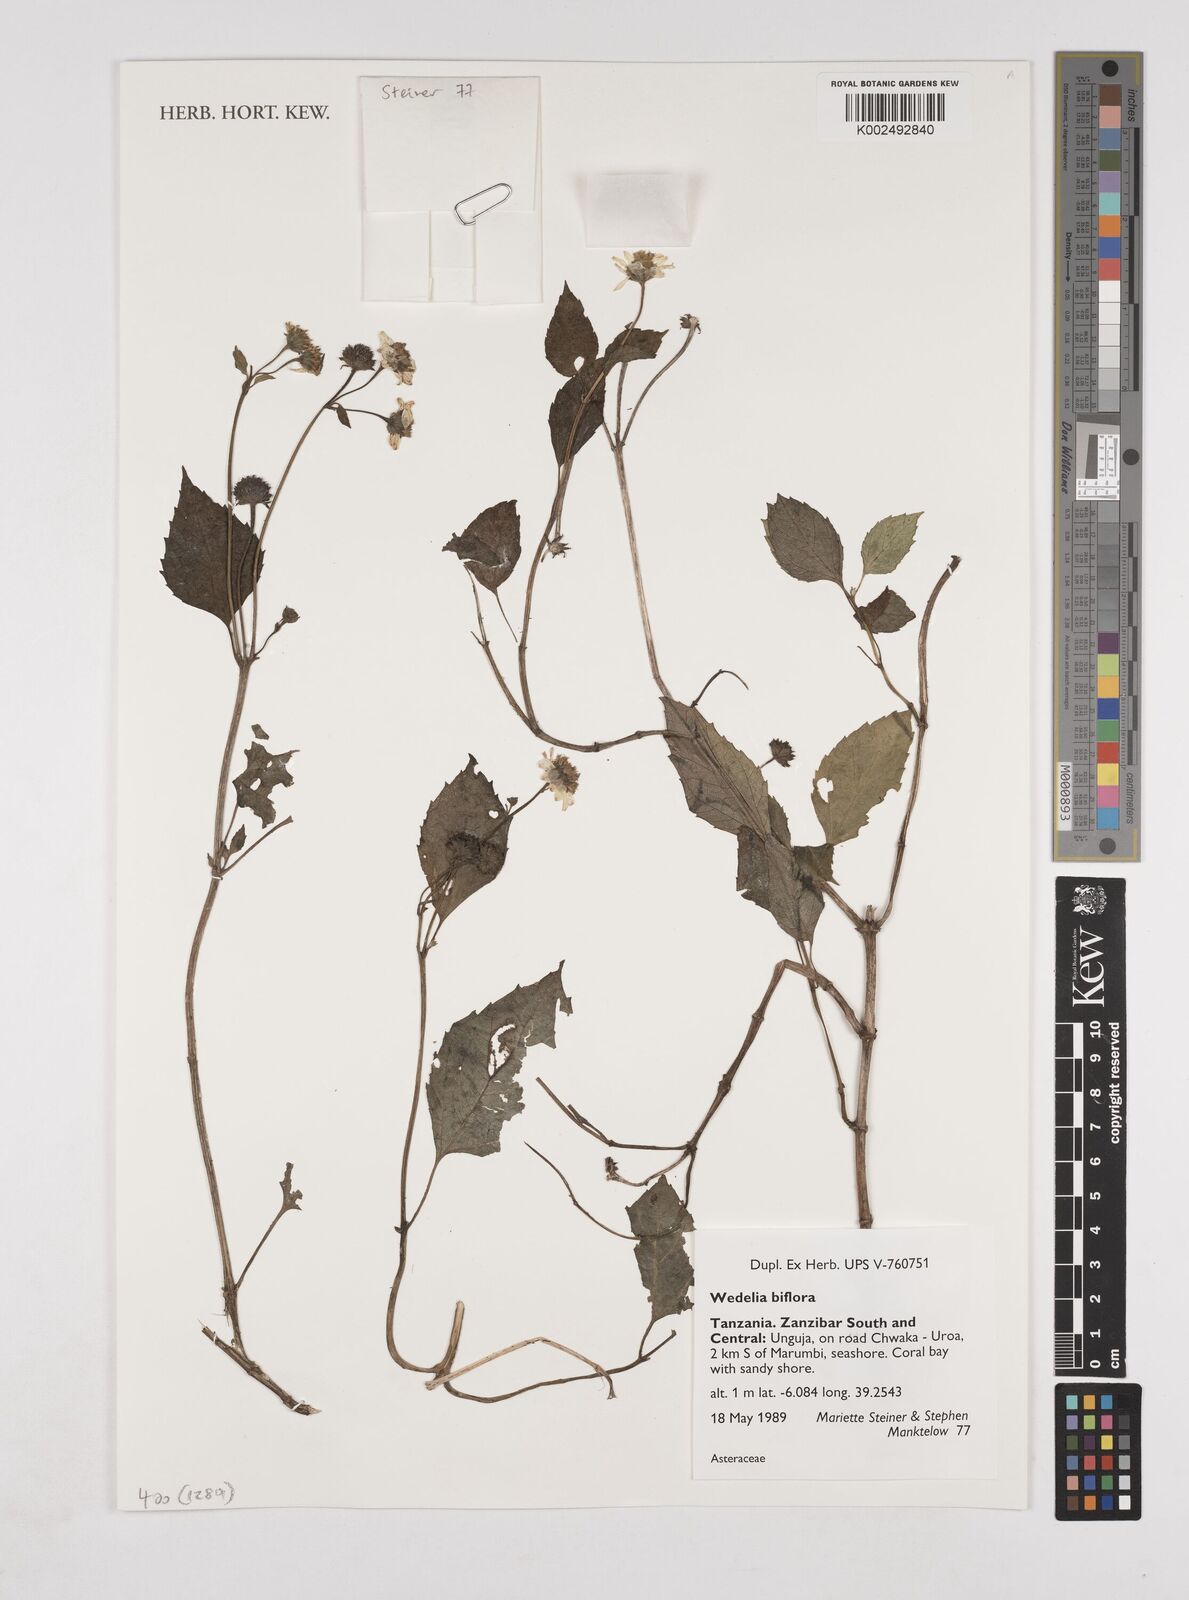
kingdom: Plantae
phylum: Tracheophyta
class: Magnoliopsida
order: Asterales
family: Asteraceae
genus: Wollastonia
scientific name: Wollastonia biflora
